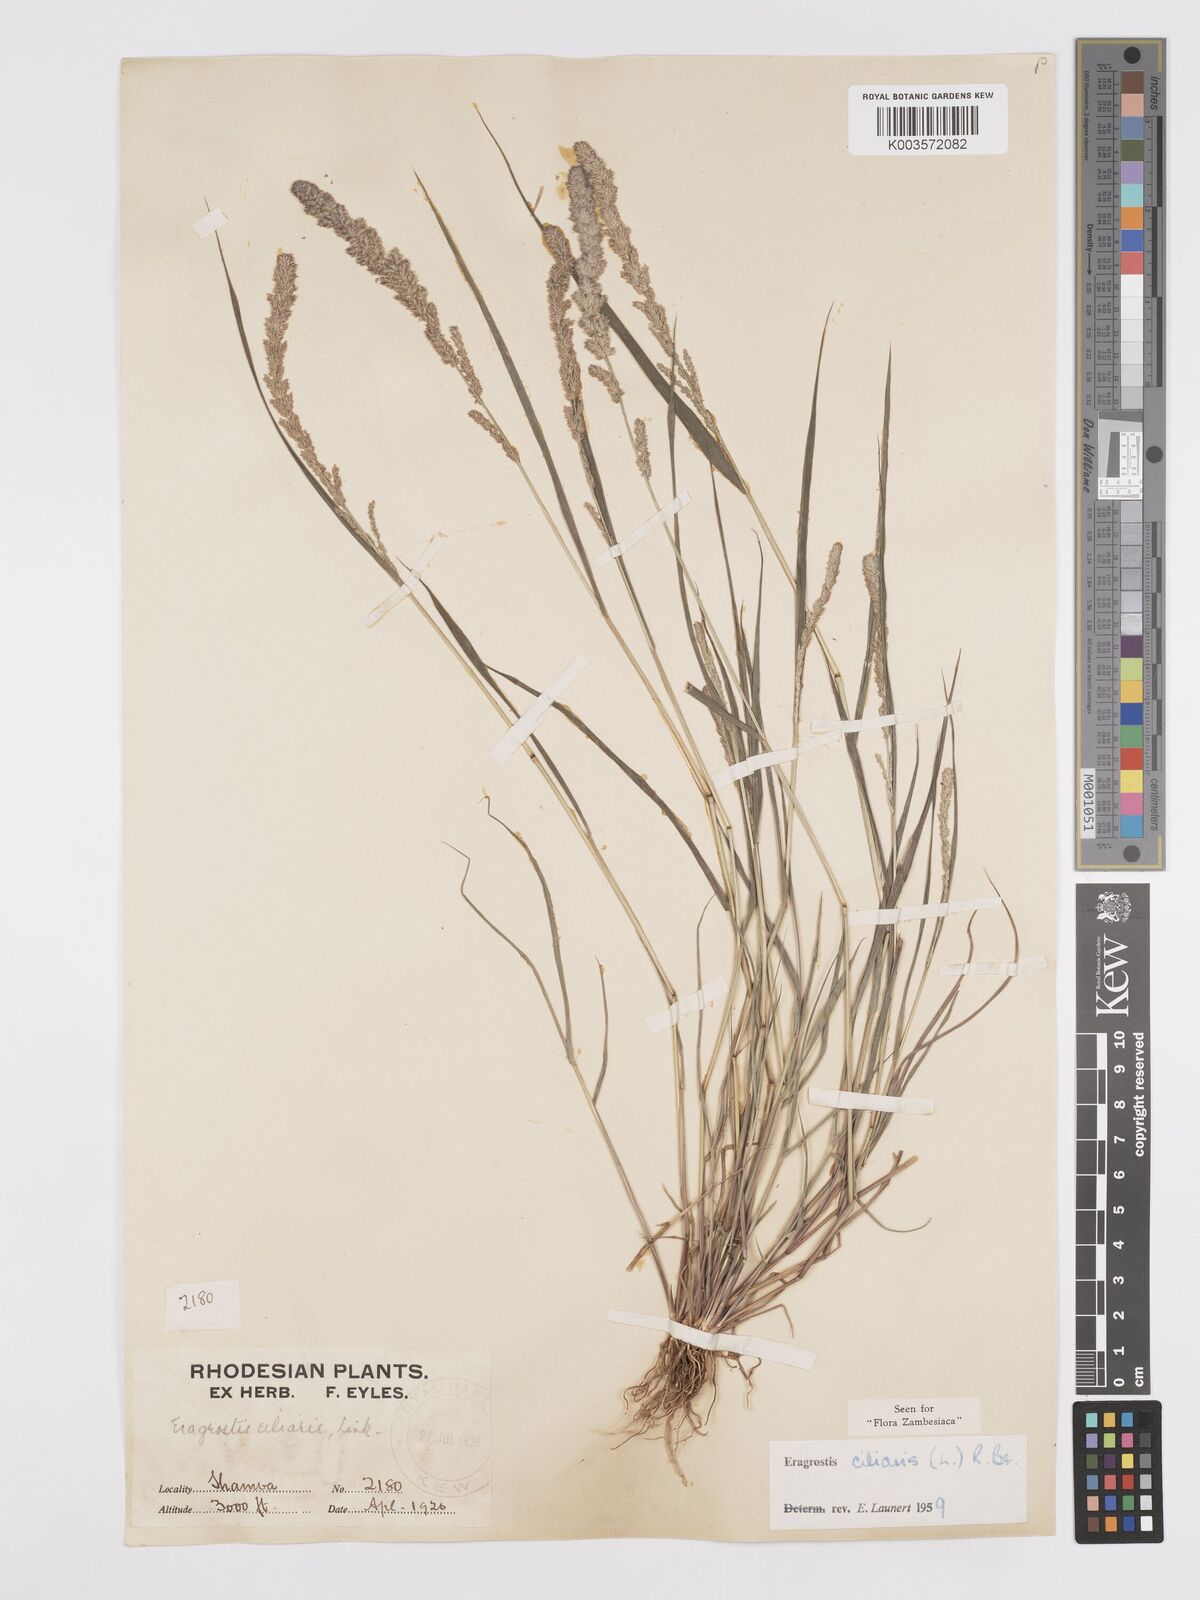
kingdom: Plantae
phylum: Tracheophyta
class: Liliopsida
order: Poales
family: Poaceae
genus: Eragrostis
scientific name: Eragrostis ciliaris
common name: Gophertail lovegrass
